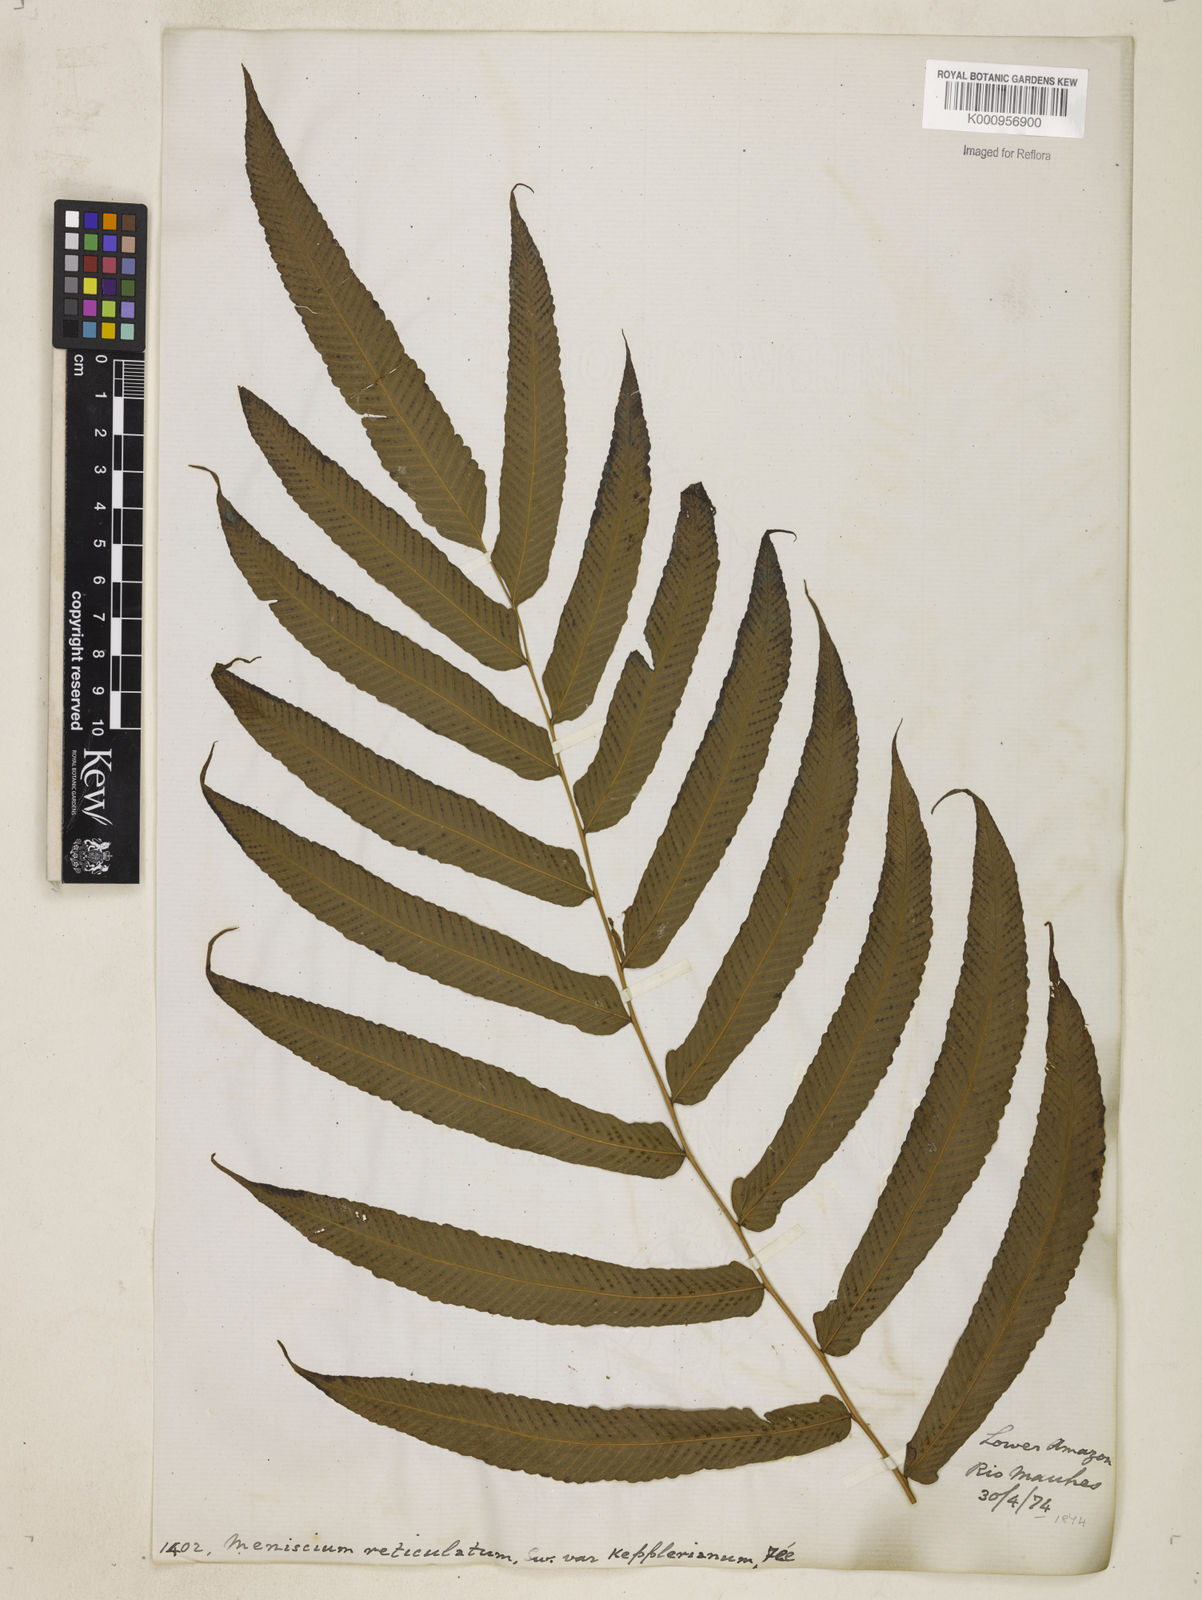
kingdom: Plantae
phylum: Tracheophyta
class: Polypodiopsida
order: Polypodiales
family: Thelypteridaceae
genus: Meniscium
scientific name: Meniscium
